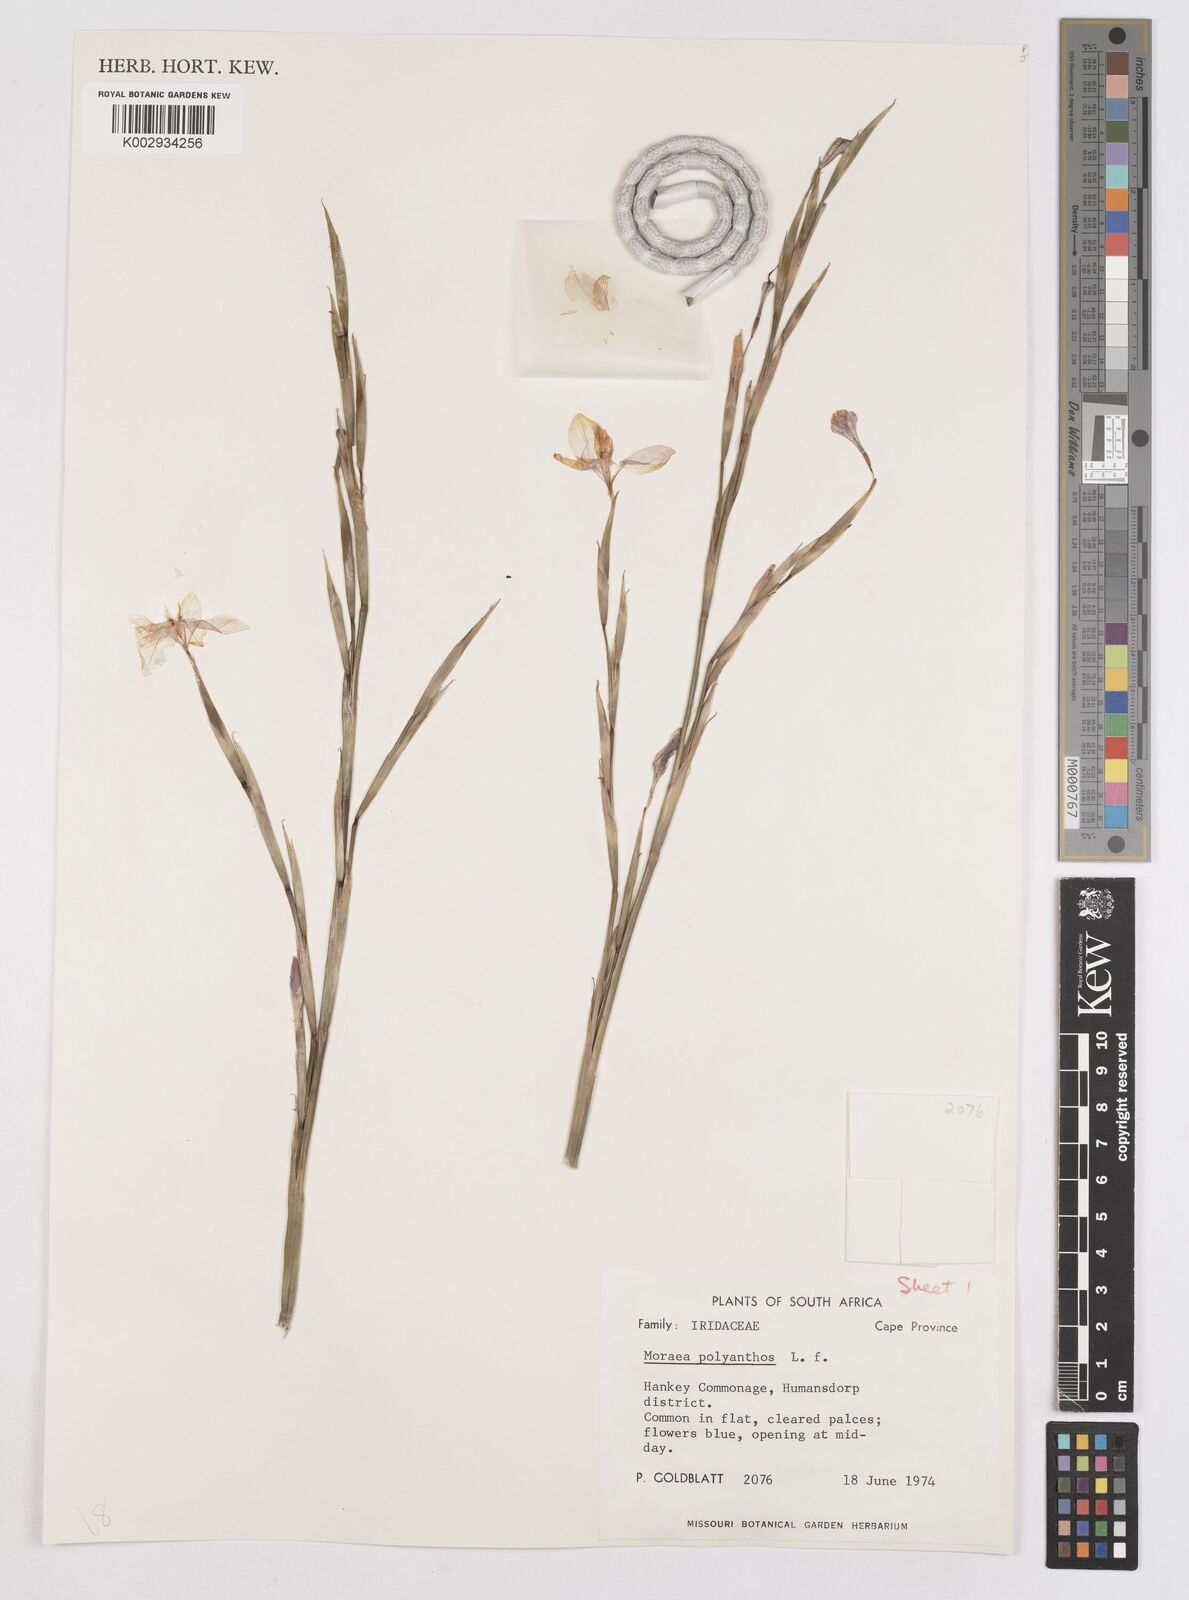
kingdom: Plantae
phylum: Tracheophyta
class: Liliopsida
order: Asparagales
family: Iridaceae
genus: Moraea
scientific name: Moraea bipartita
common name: Blue tulp
